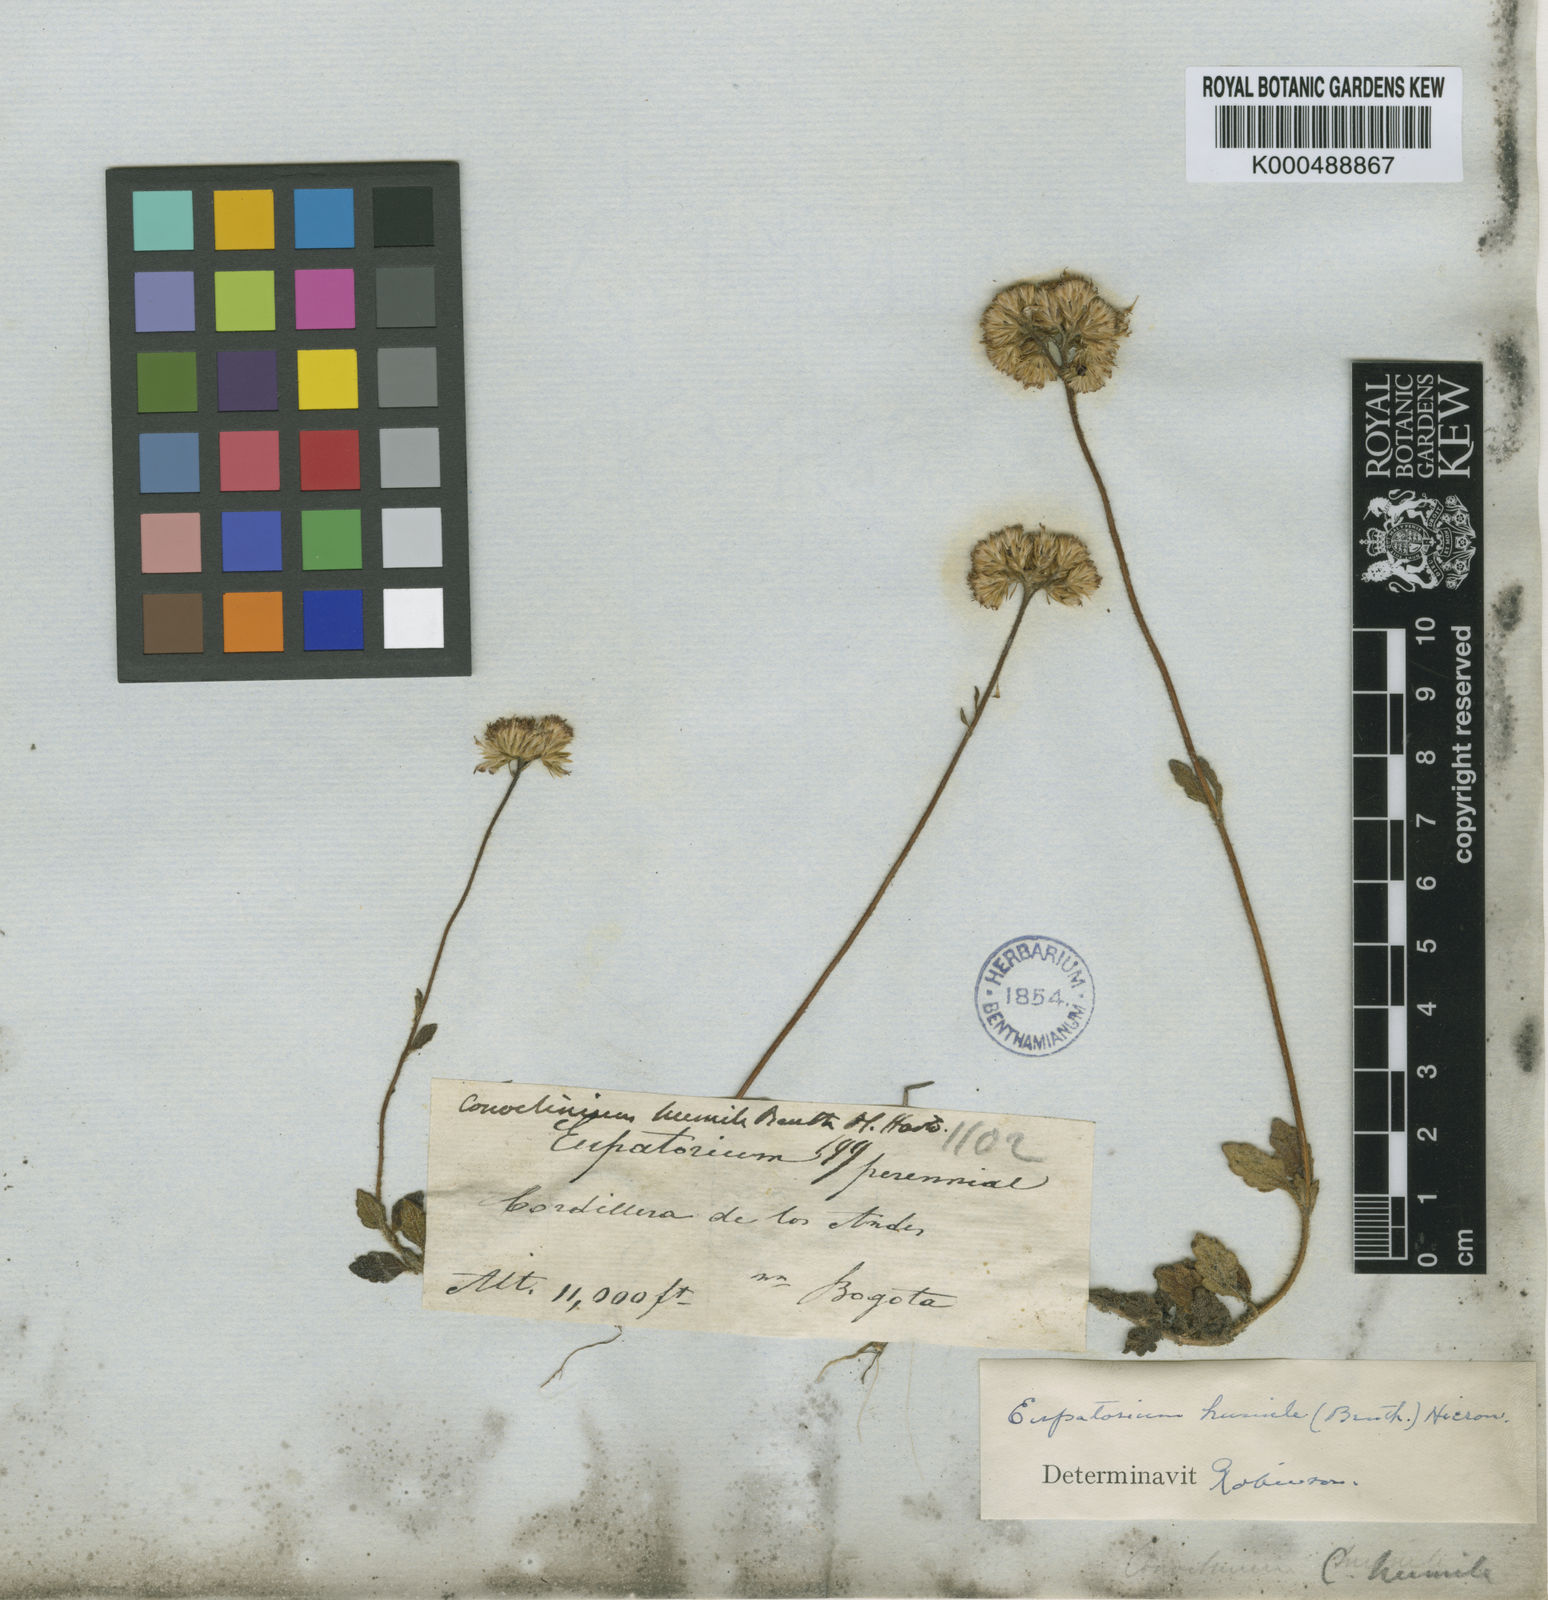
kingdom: Plantae
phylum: Tracheophyta
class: Magnoliopsida
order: Asterales
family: Asteraceae
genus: Lourteigia
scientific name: Lourteigia humilis
